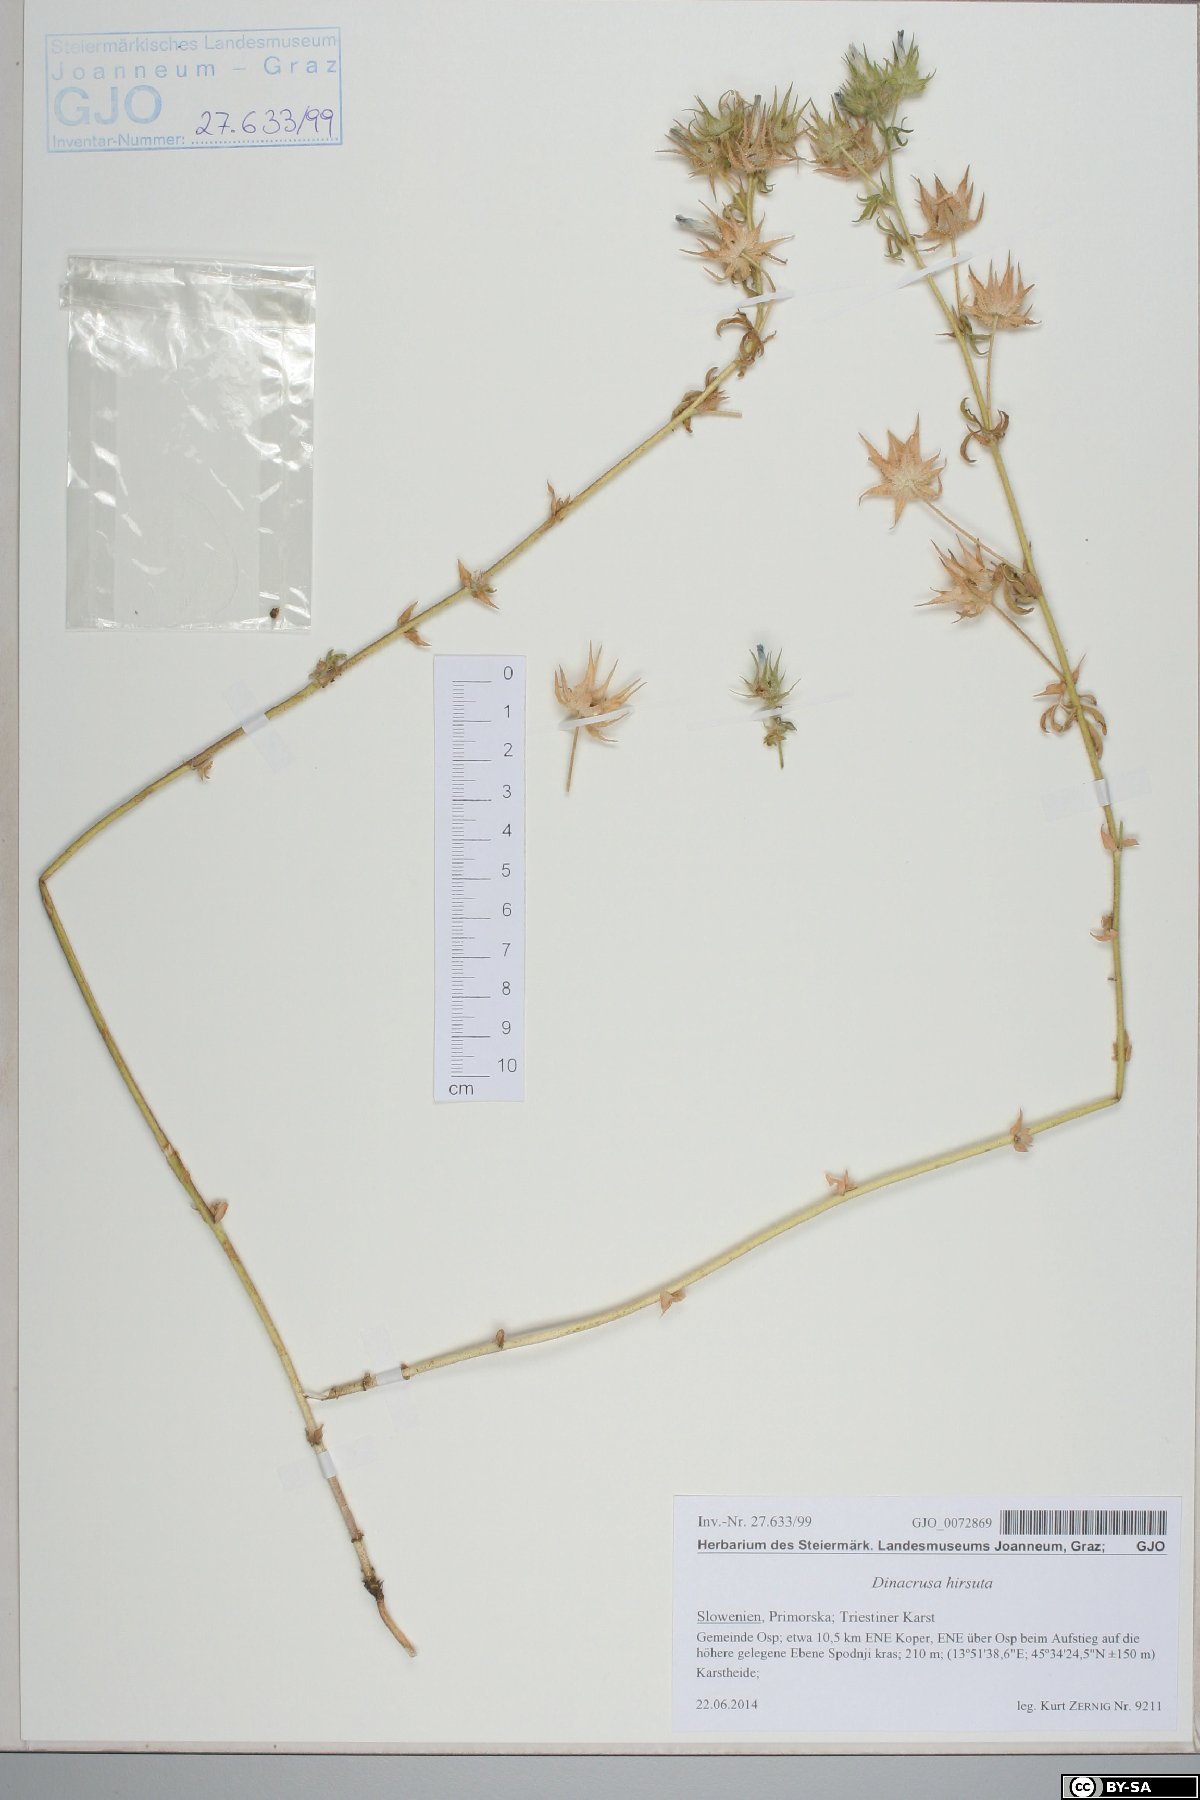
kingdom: Plantae
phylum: Tracheophyta
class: Magnoliopsida
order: Malvales
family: Malvaceae
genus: Althaea
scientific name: Althaea hirsuta
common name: Rough marsh-mallow
